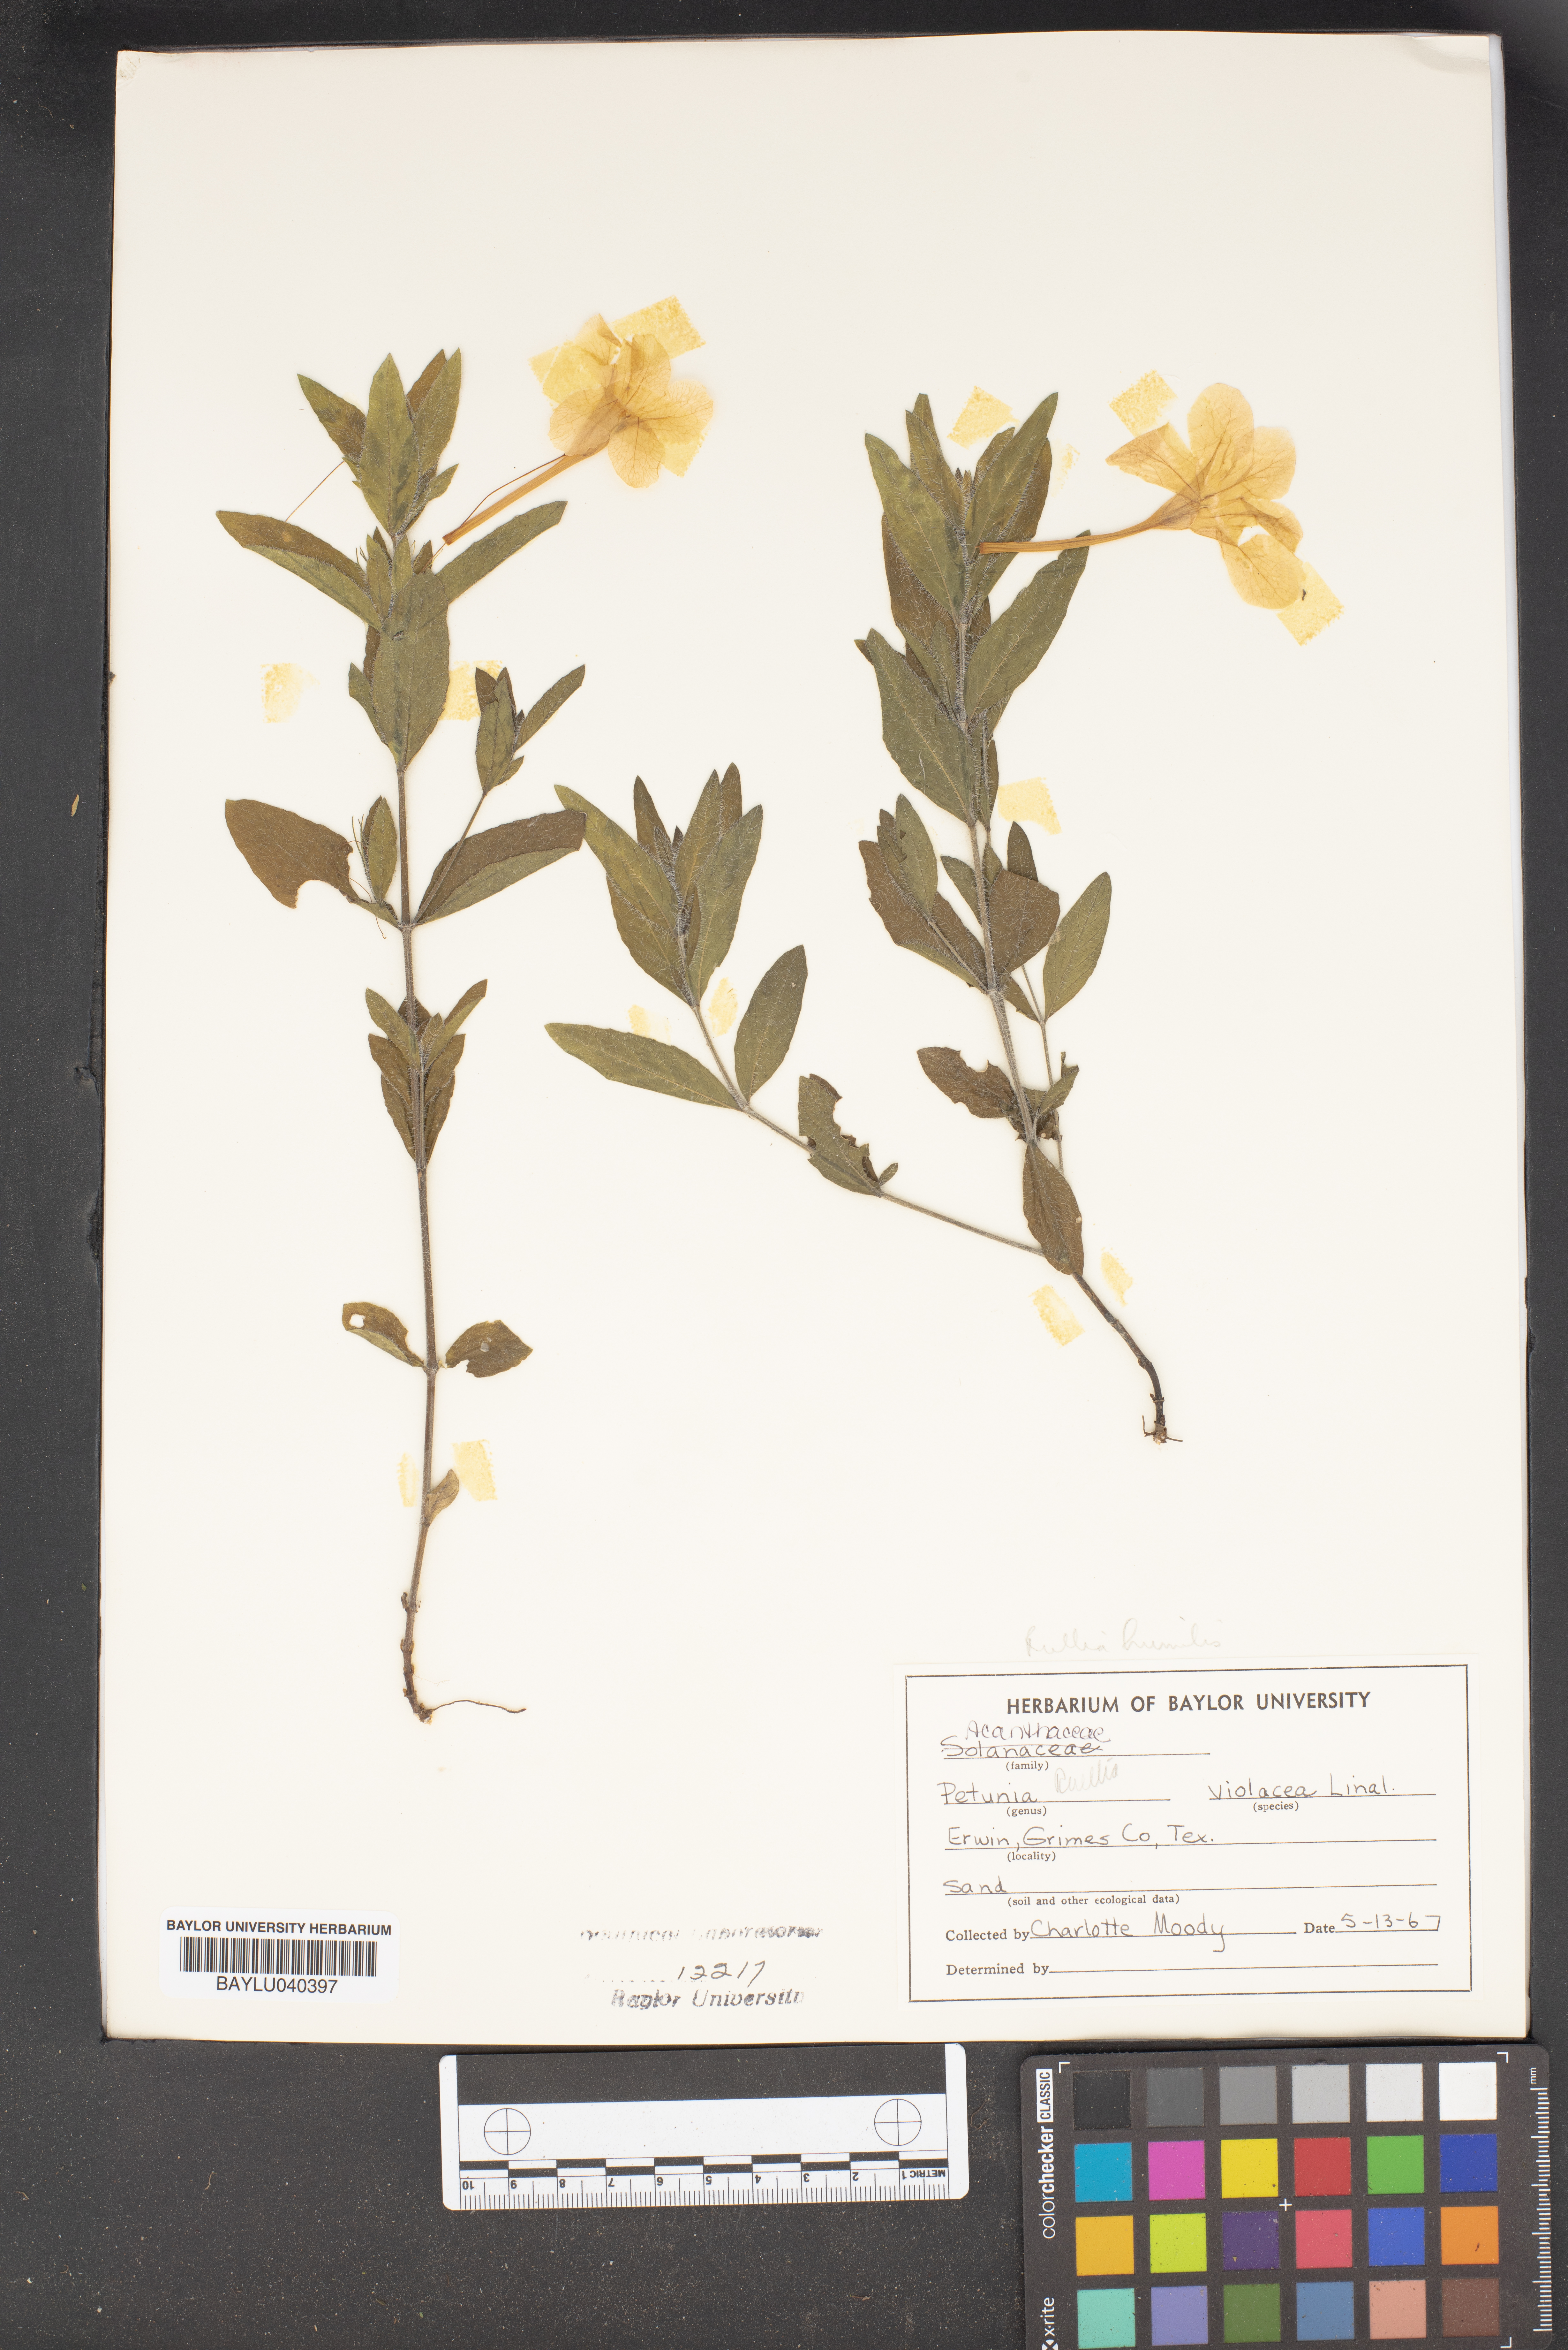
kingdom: Plantae
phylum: Tracheophyta
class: Magnoliopsida
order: Solanales
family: Solanaceae
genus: Petunia
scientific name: Petunia integrifolia
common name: Violet-flower petunia
